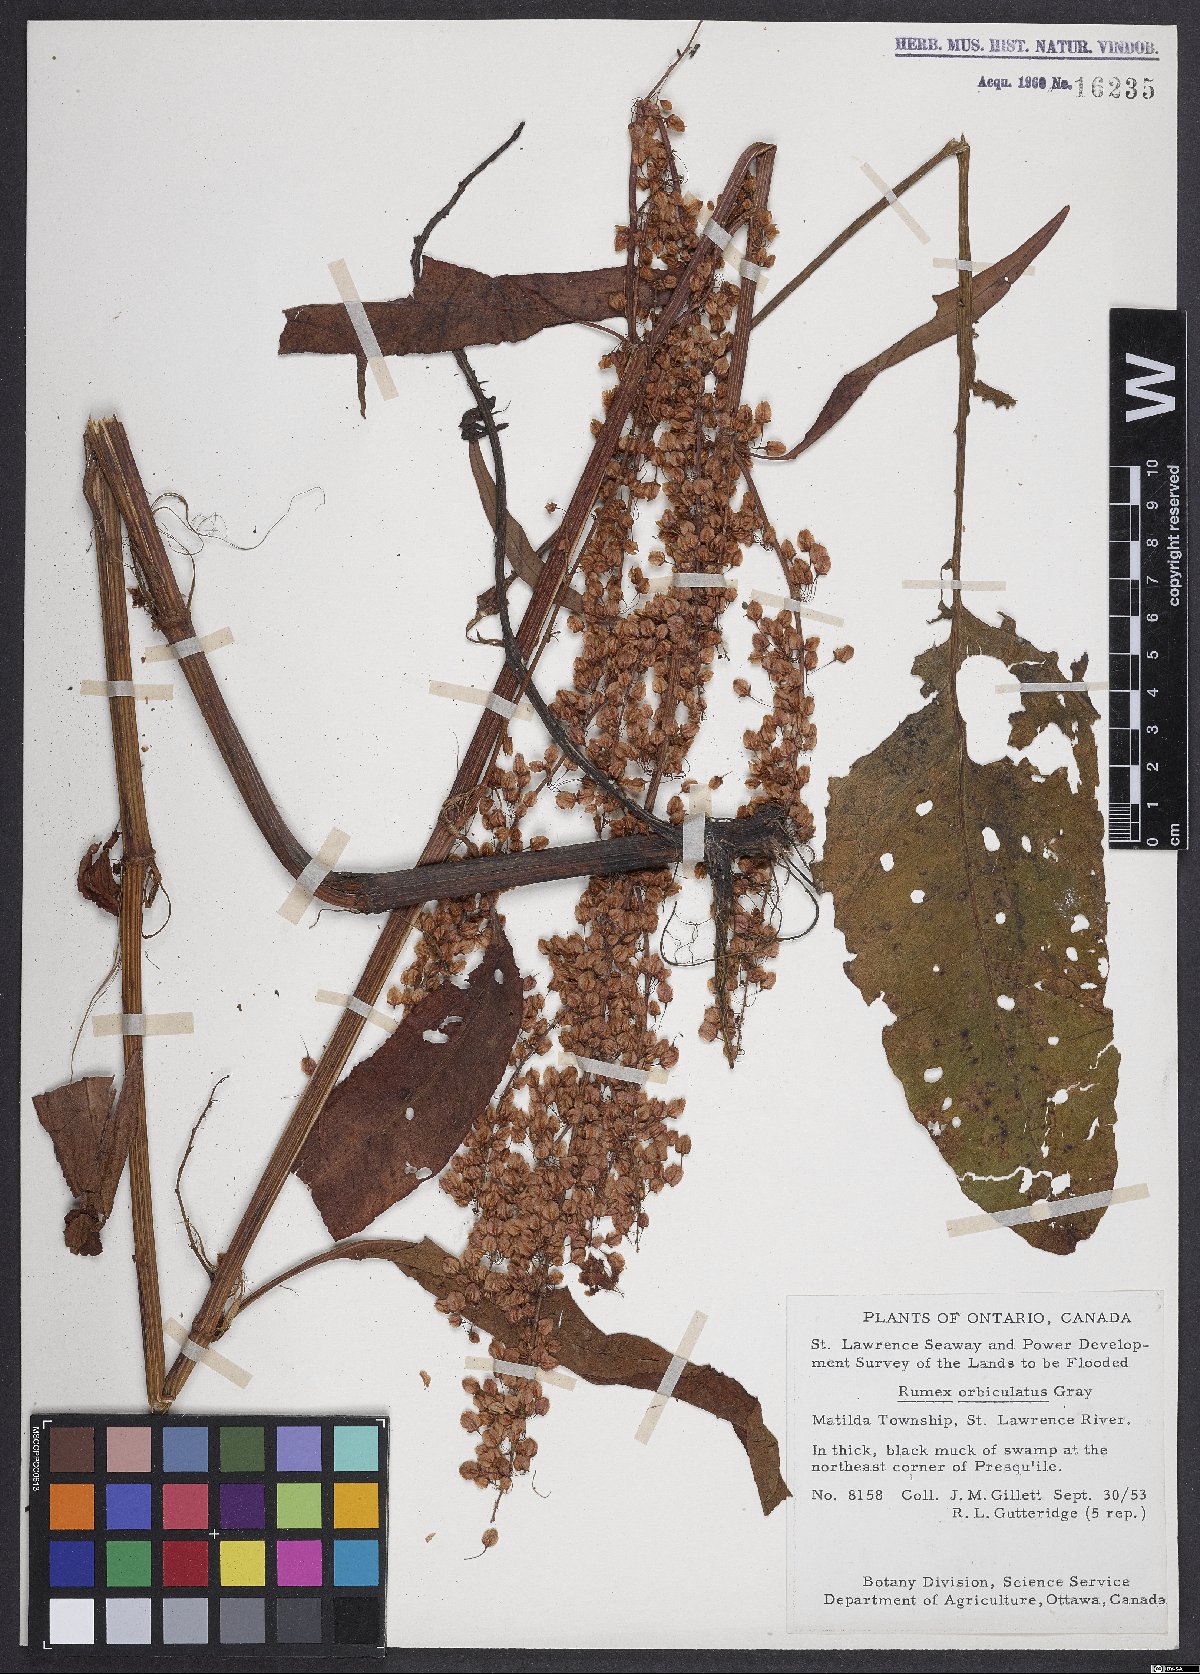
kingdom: Plantae
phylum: Tracheophyta
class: Magnoliopsida
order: Caryophyllales
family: Polygonaceae
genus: Rumex
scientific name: Rumex orbiculatus
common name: Greater water dock
